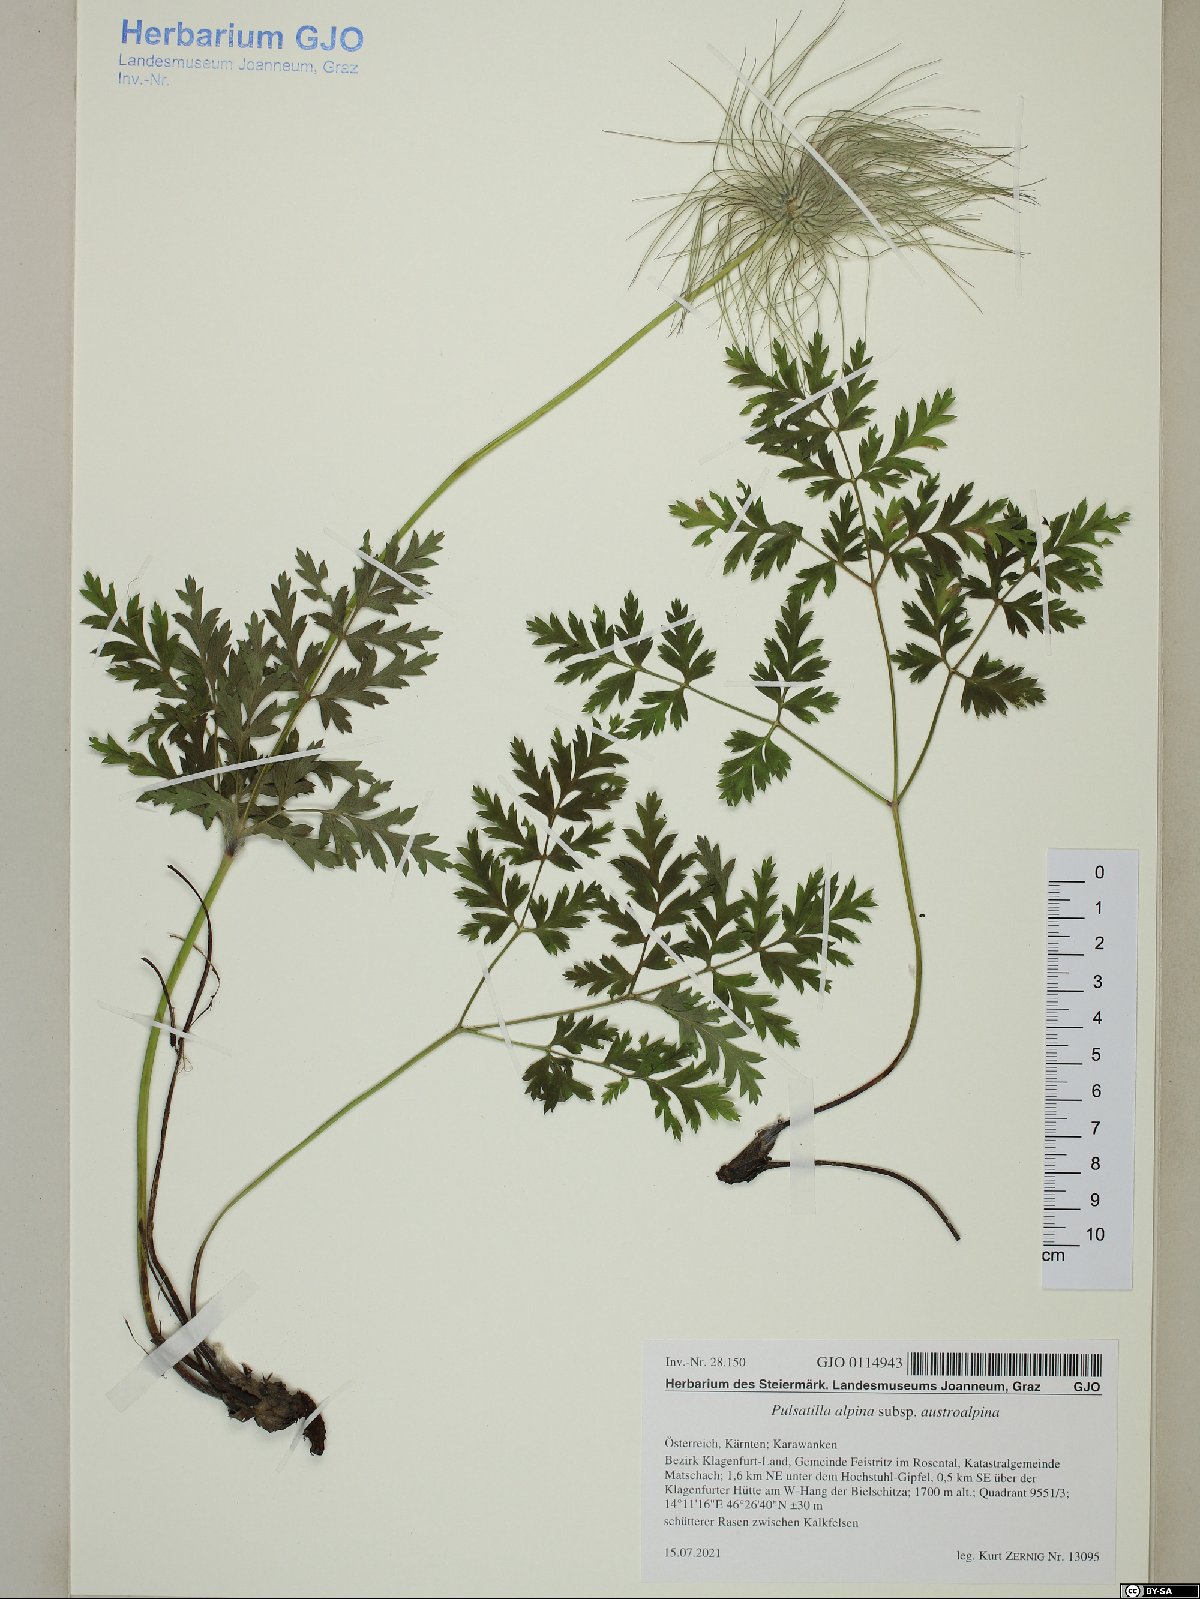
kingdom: Plantae
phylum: Tracheophyta
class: Magnoliopsida
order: Ranunculales
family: Ranunculaceae
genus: Pulsatilla
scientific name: Pulsatilla alpina
